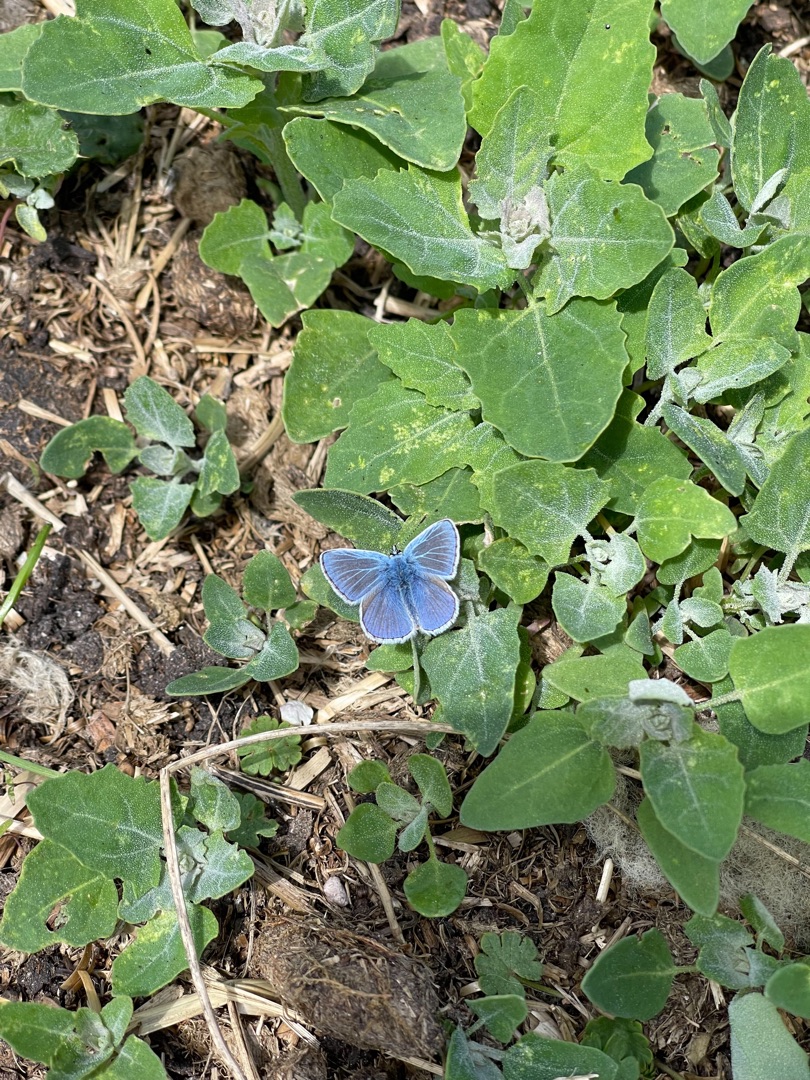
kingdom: Animalia
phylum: Arthropoda
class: Insecta
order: Lepidoptera
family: Lycaenidae
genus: Polyommatus
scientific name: Polyommatus icarus
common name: Almindelig blåfugl
